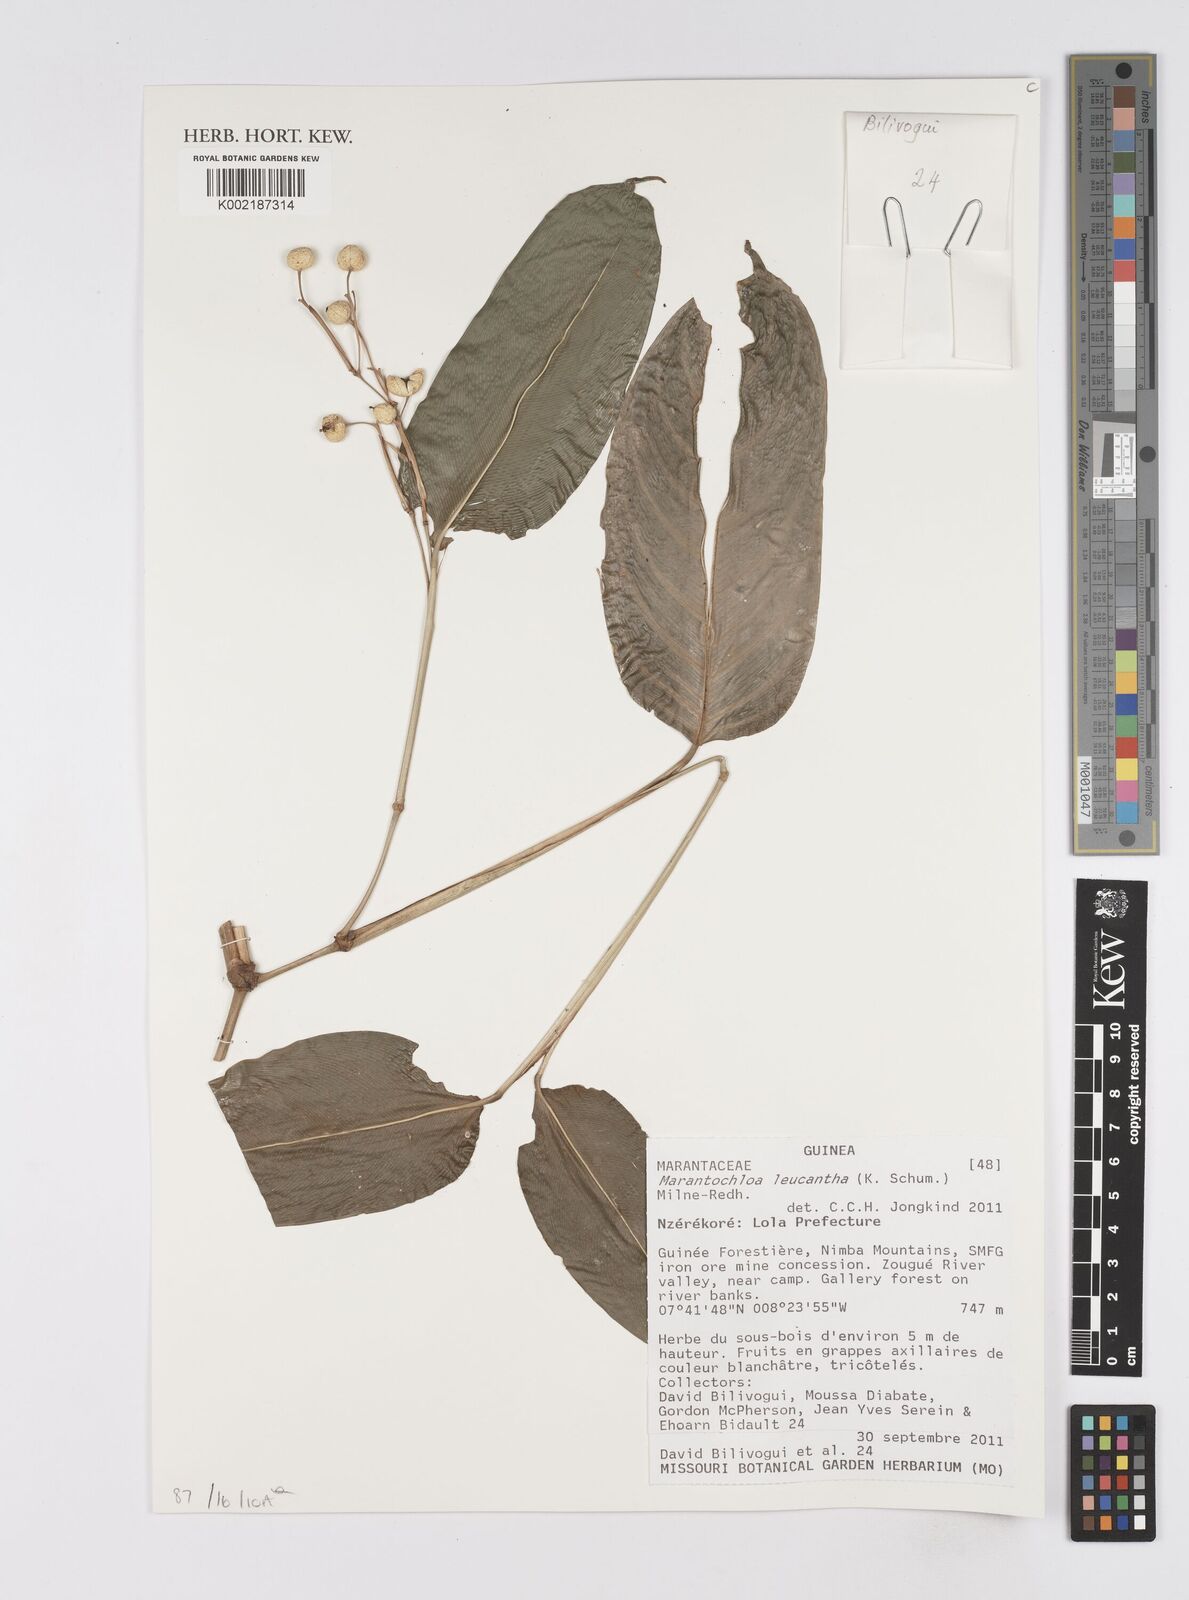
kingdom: Plantae
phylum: Tracheophyta
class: Liliopsida
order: Zingiberales
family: Marantaceae
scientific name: Marantaceae
